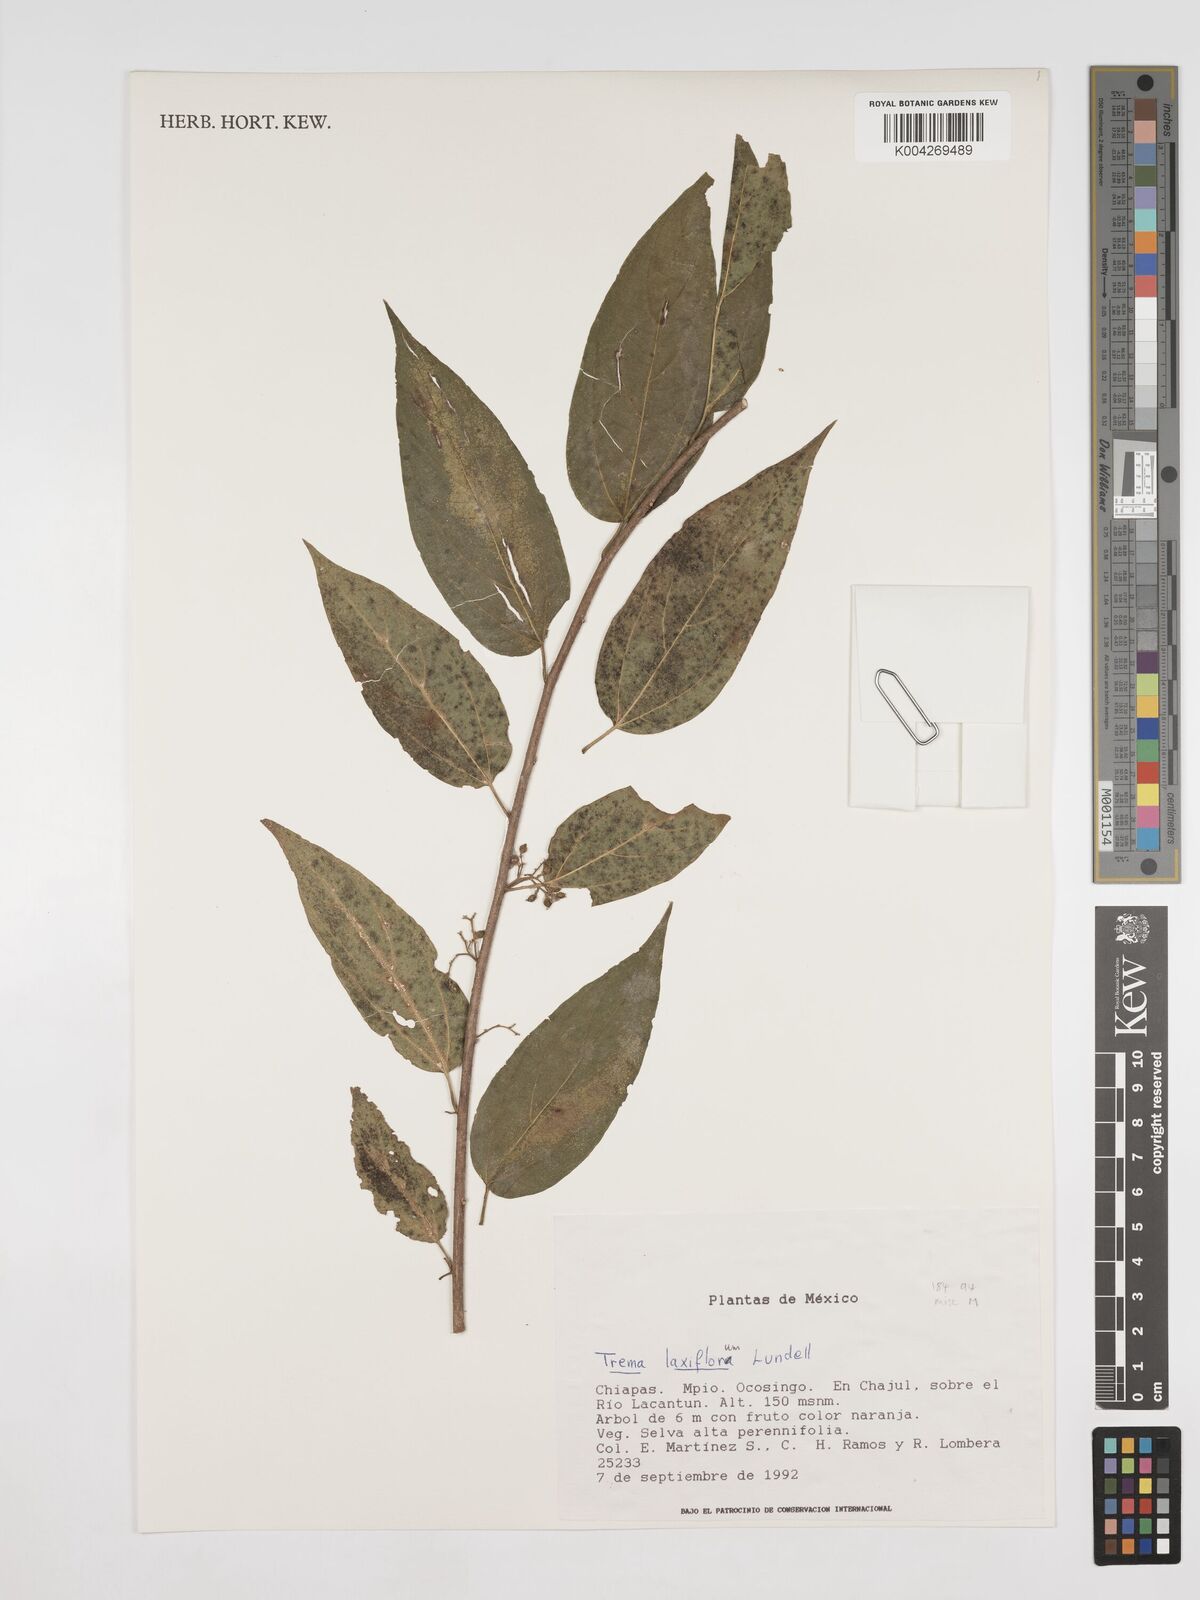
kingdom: Plantae
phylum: Tracheophyta
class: Magnoliopsida
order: Rosales
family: Cannabaceae
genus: Trema
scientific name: Trema integerrimum
